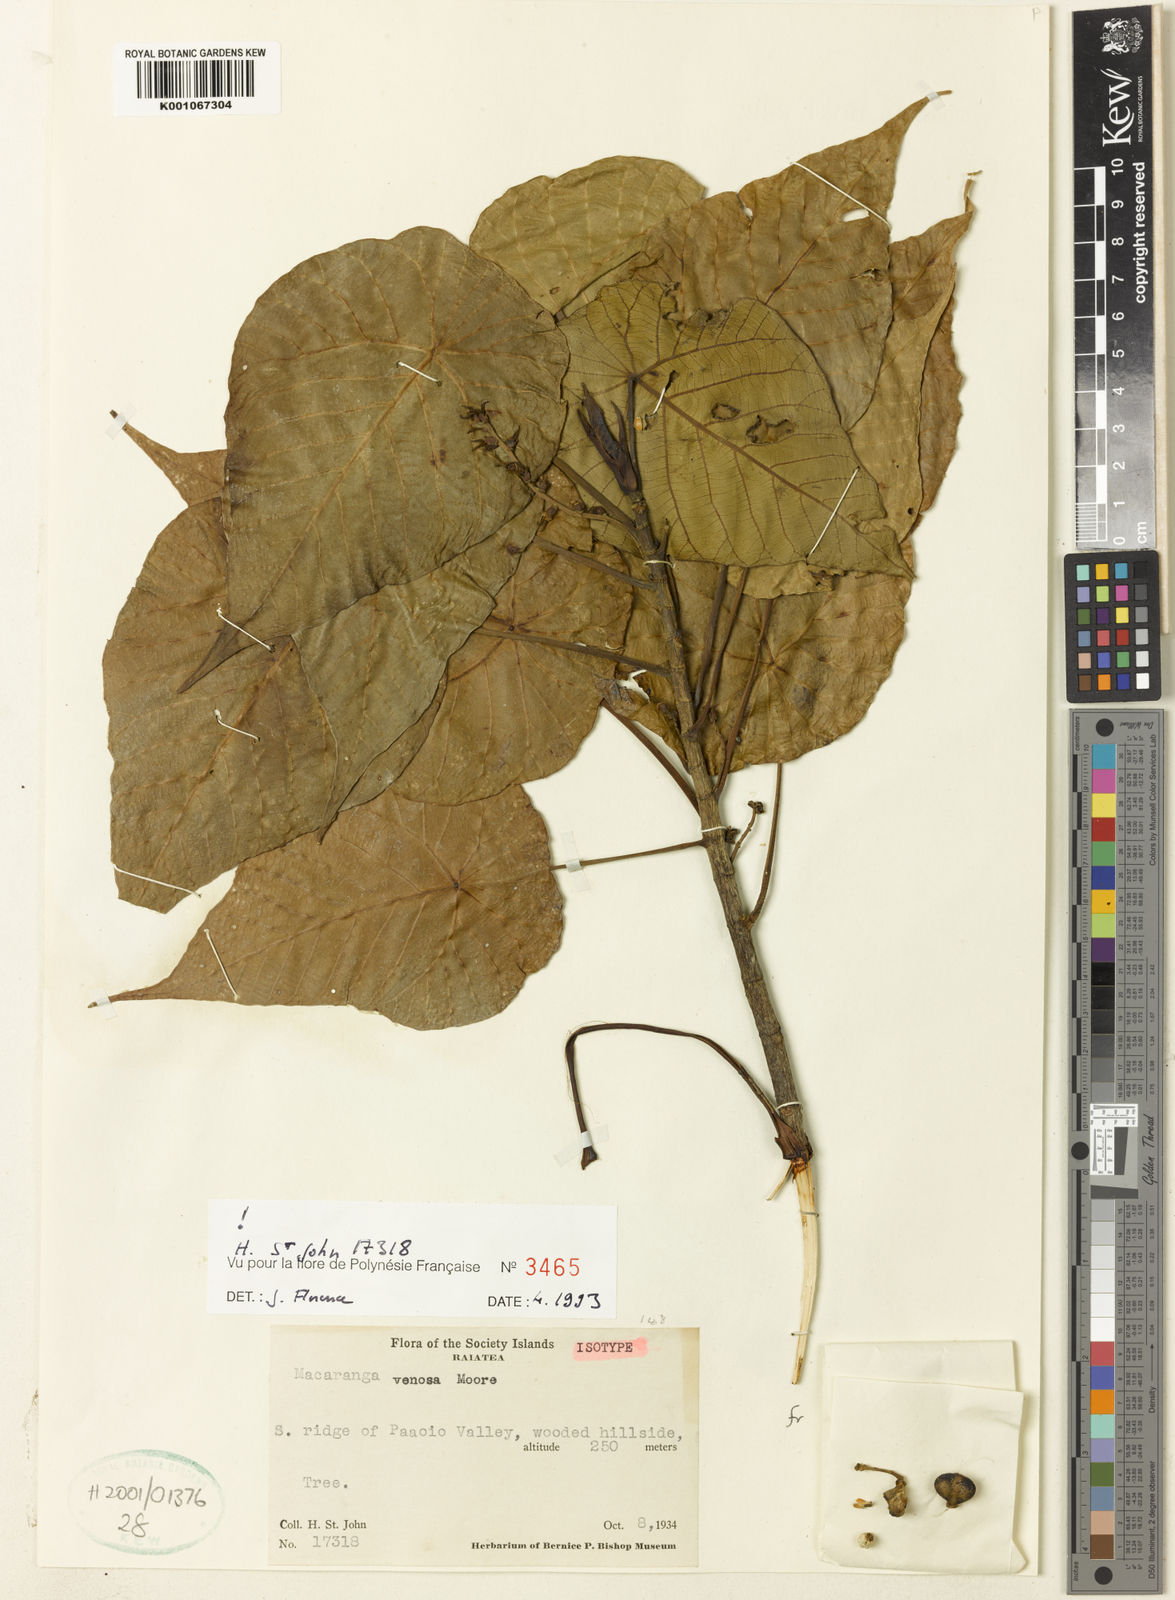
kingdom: Plantae
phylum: Tracheophyta
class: Magnoliopsida
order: Malpighiales
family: Euphorbiaceae
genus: Macaranga
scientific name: Macaranga venosa
